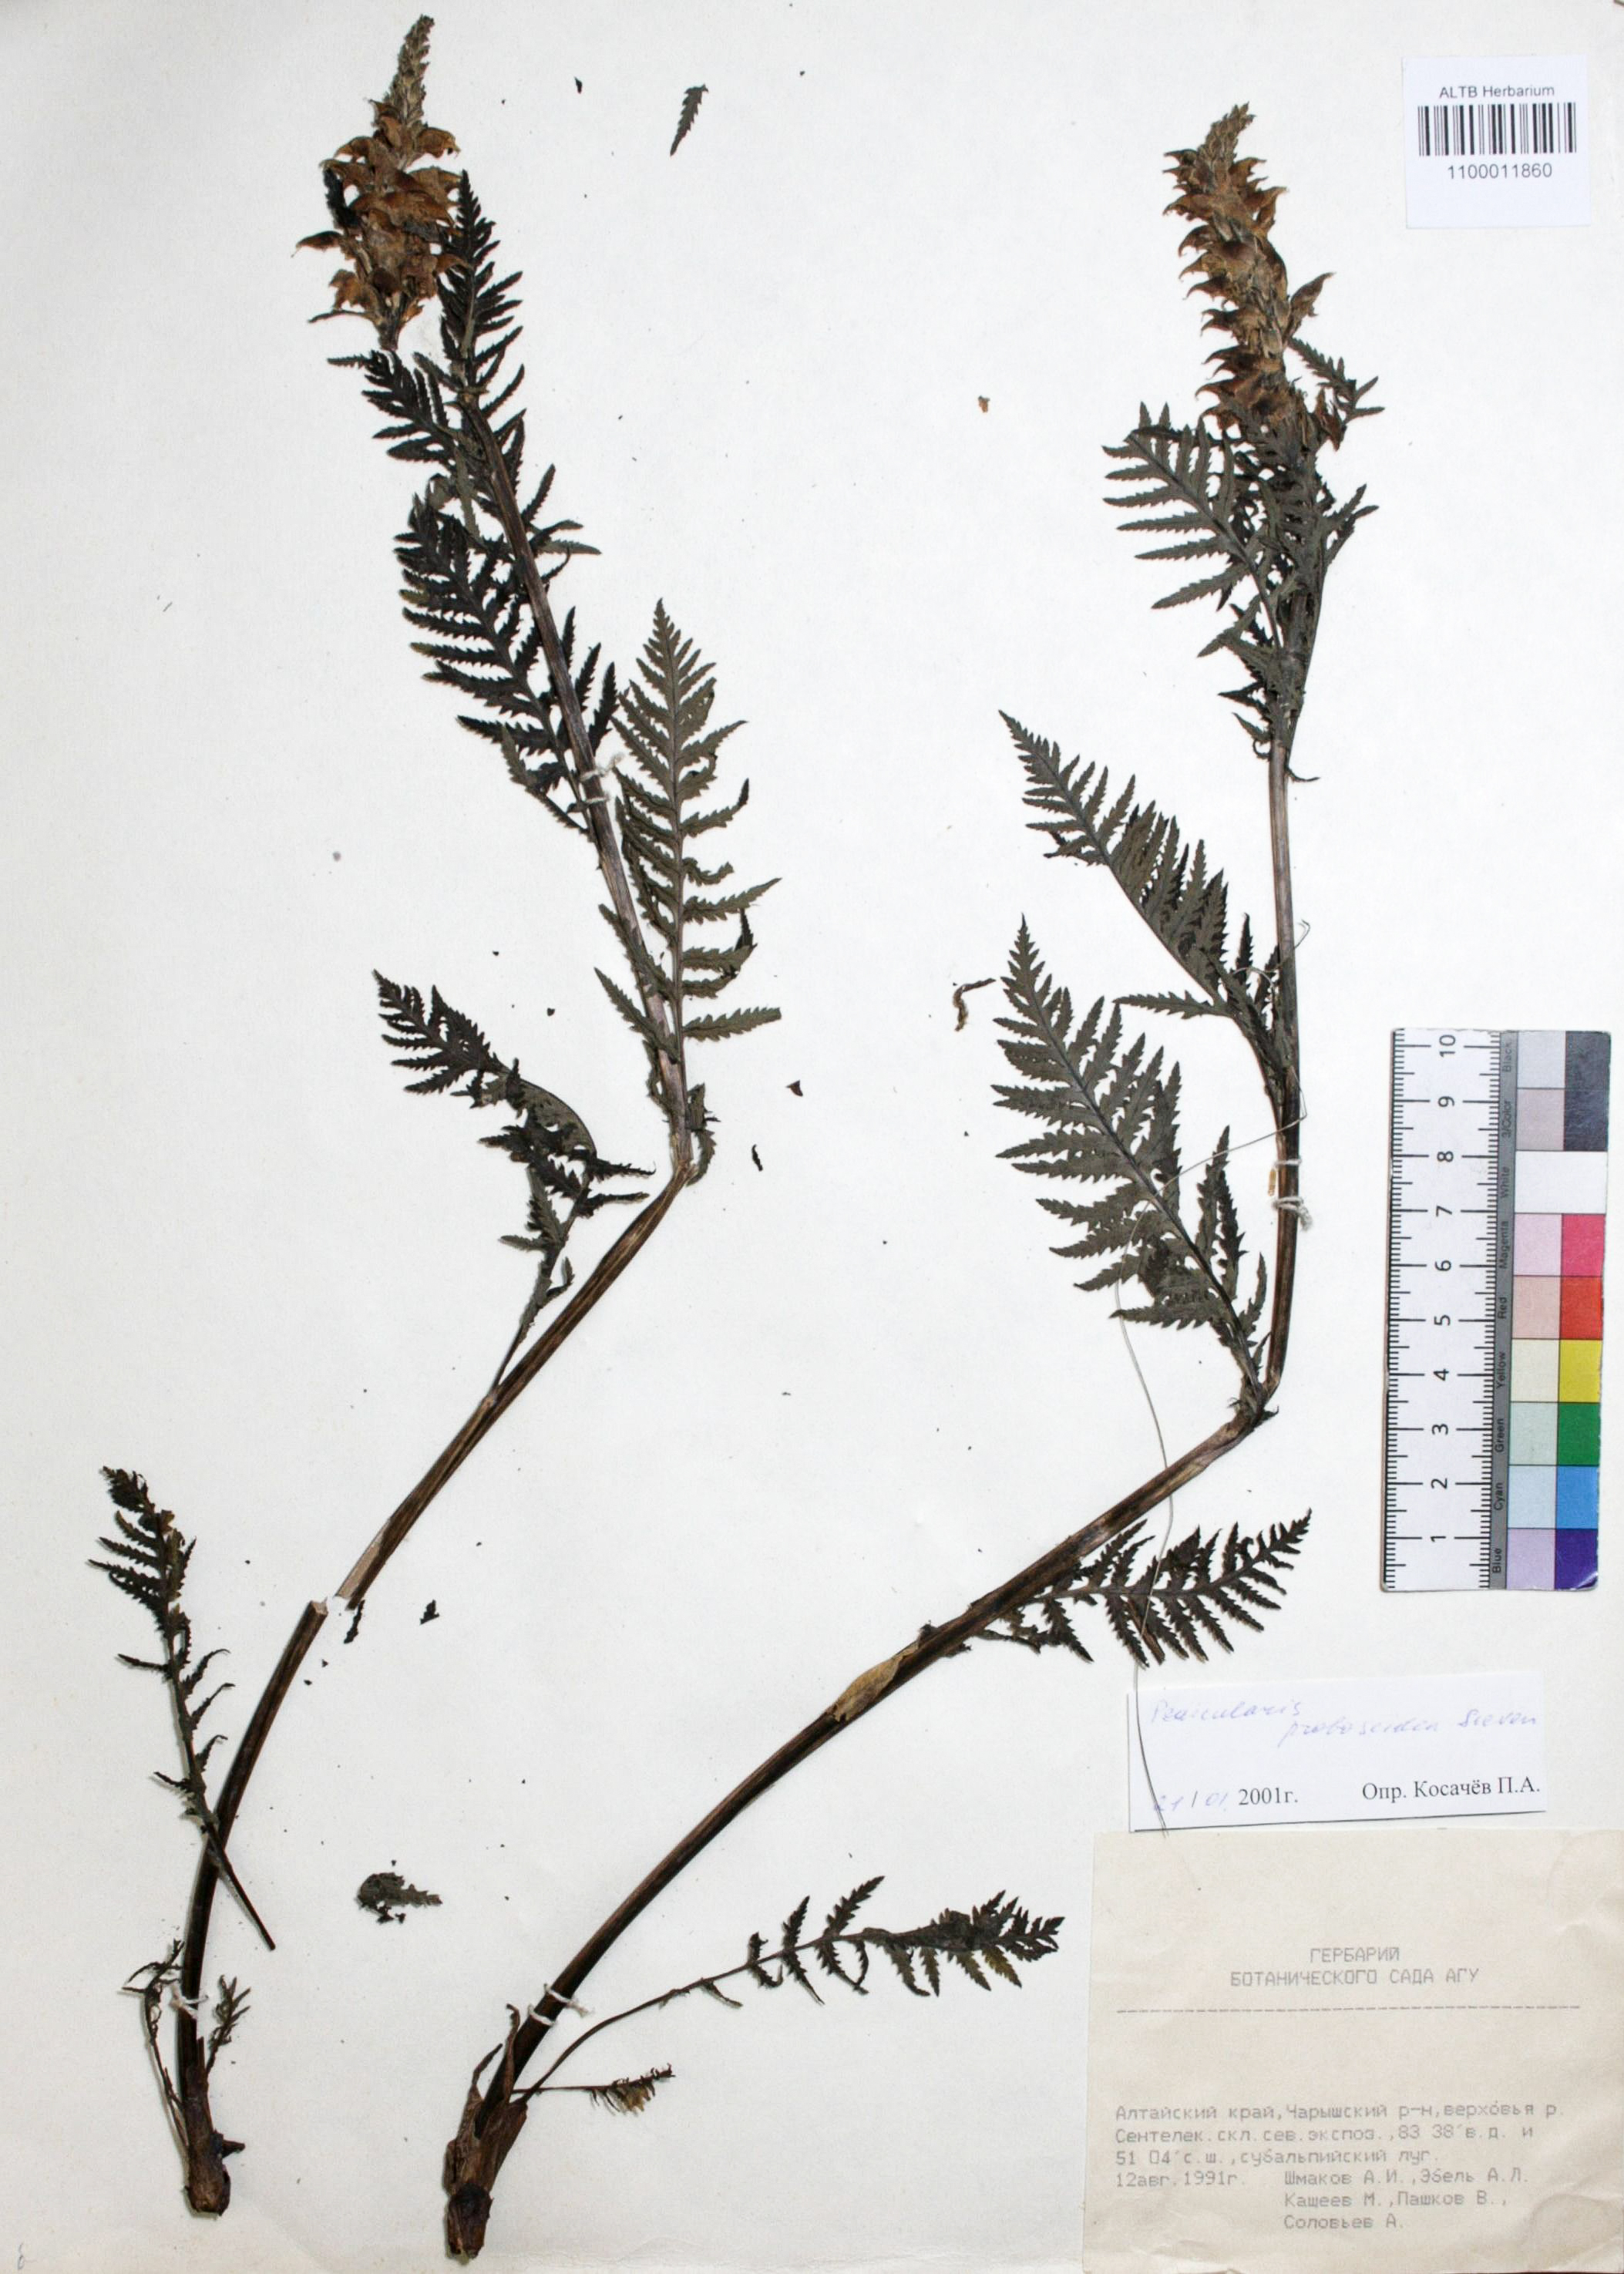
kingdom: Plantae
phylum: Tracheophyta
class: Magnoliopsida
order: Lamiales
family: Orobanchaceae
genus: Pedicularis
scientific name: Pedicularis proboscidea
